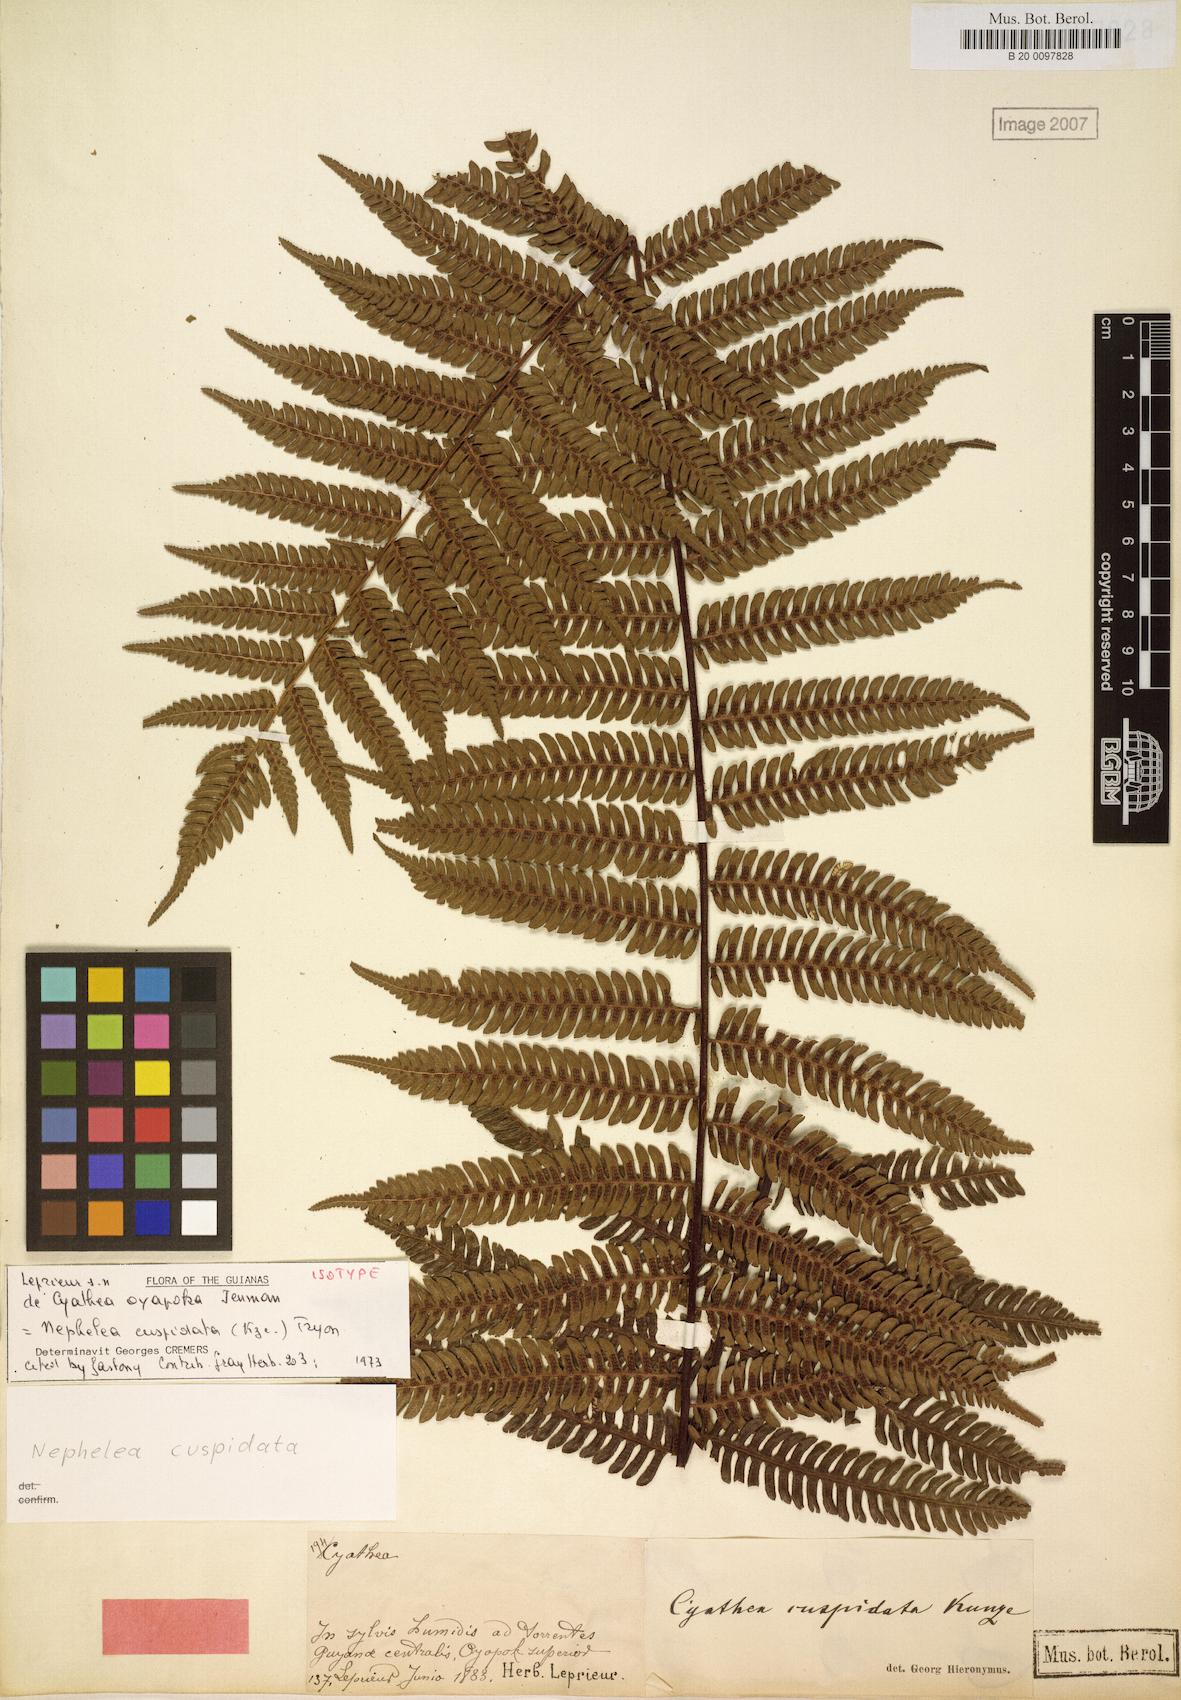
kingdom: Plantae
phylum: Tracheophyta
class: Polypodiopsida
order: Cyatheales
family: Cyatheaceae
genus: Alsophila
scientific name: Alsophila cuspidata
